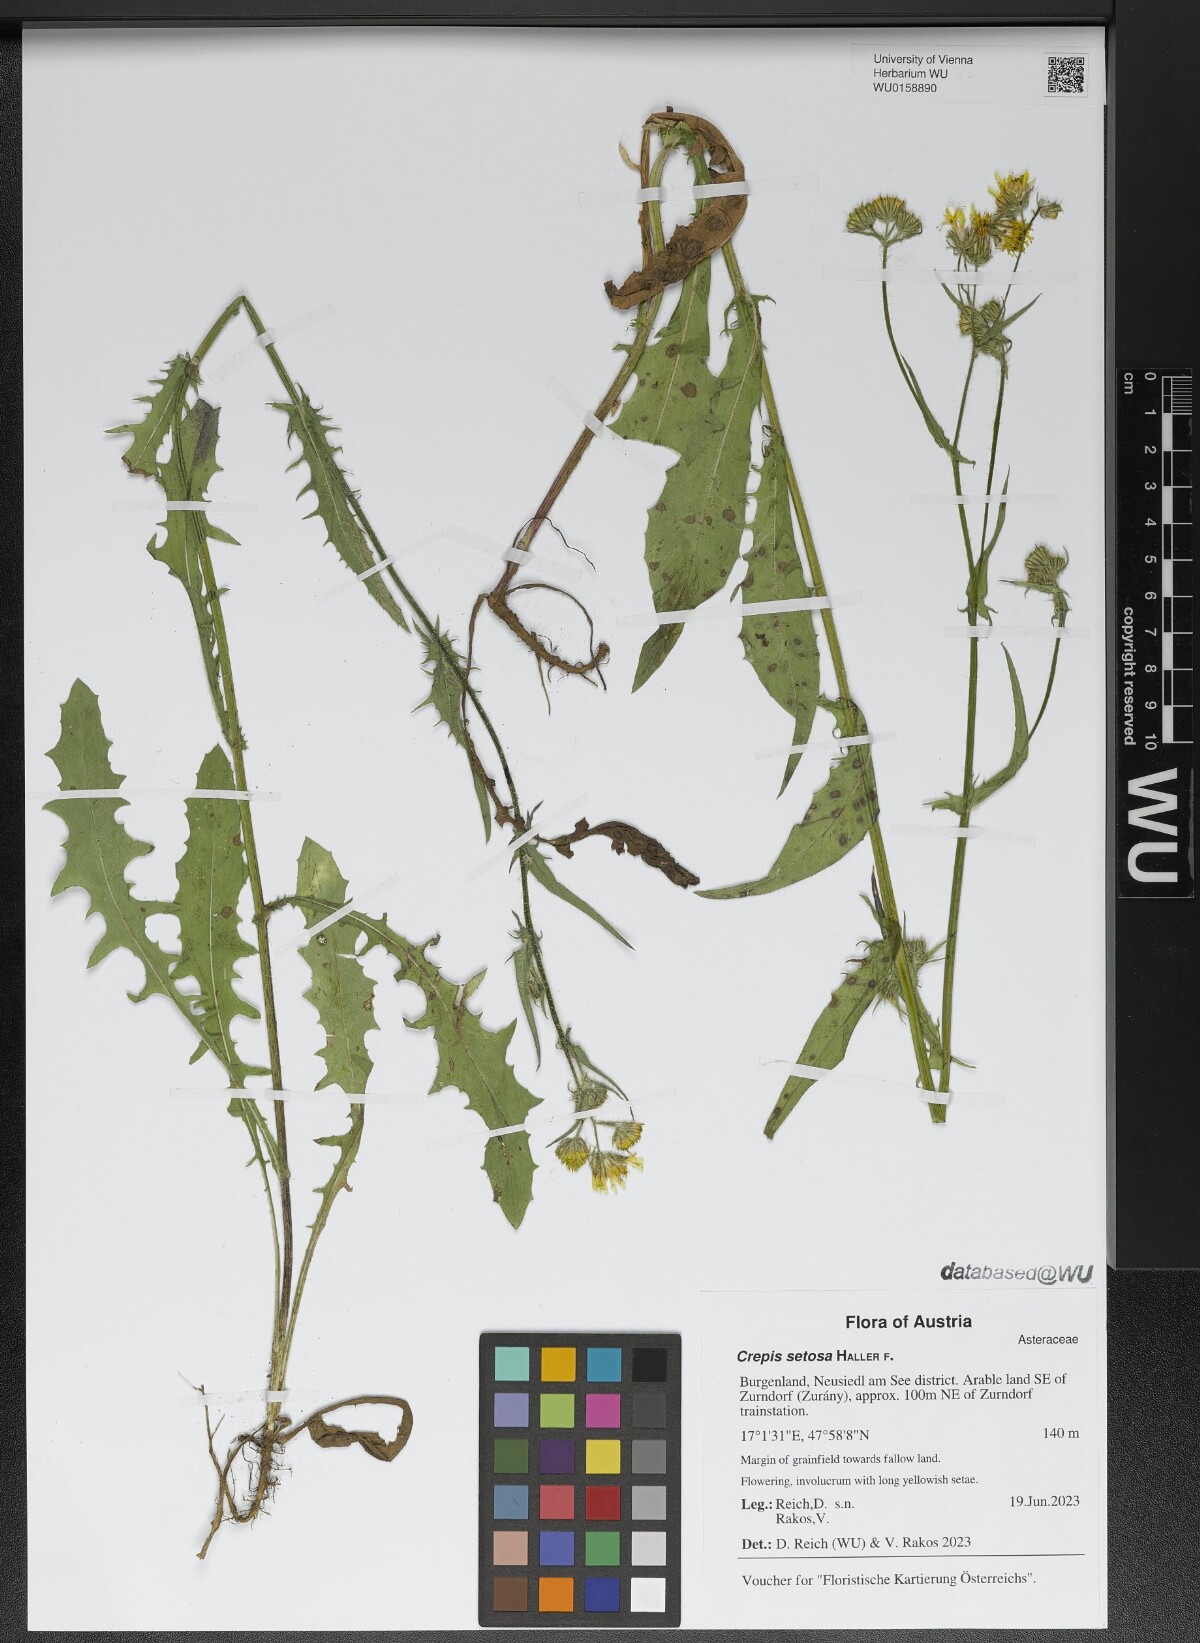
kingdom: Plantae
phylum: Tracheophyta
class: Magnoliopsida
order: Asterales
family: Asteraceae
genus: Crepis
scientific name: Crepis setosa
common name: Bristly hawk's-beard
